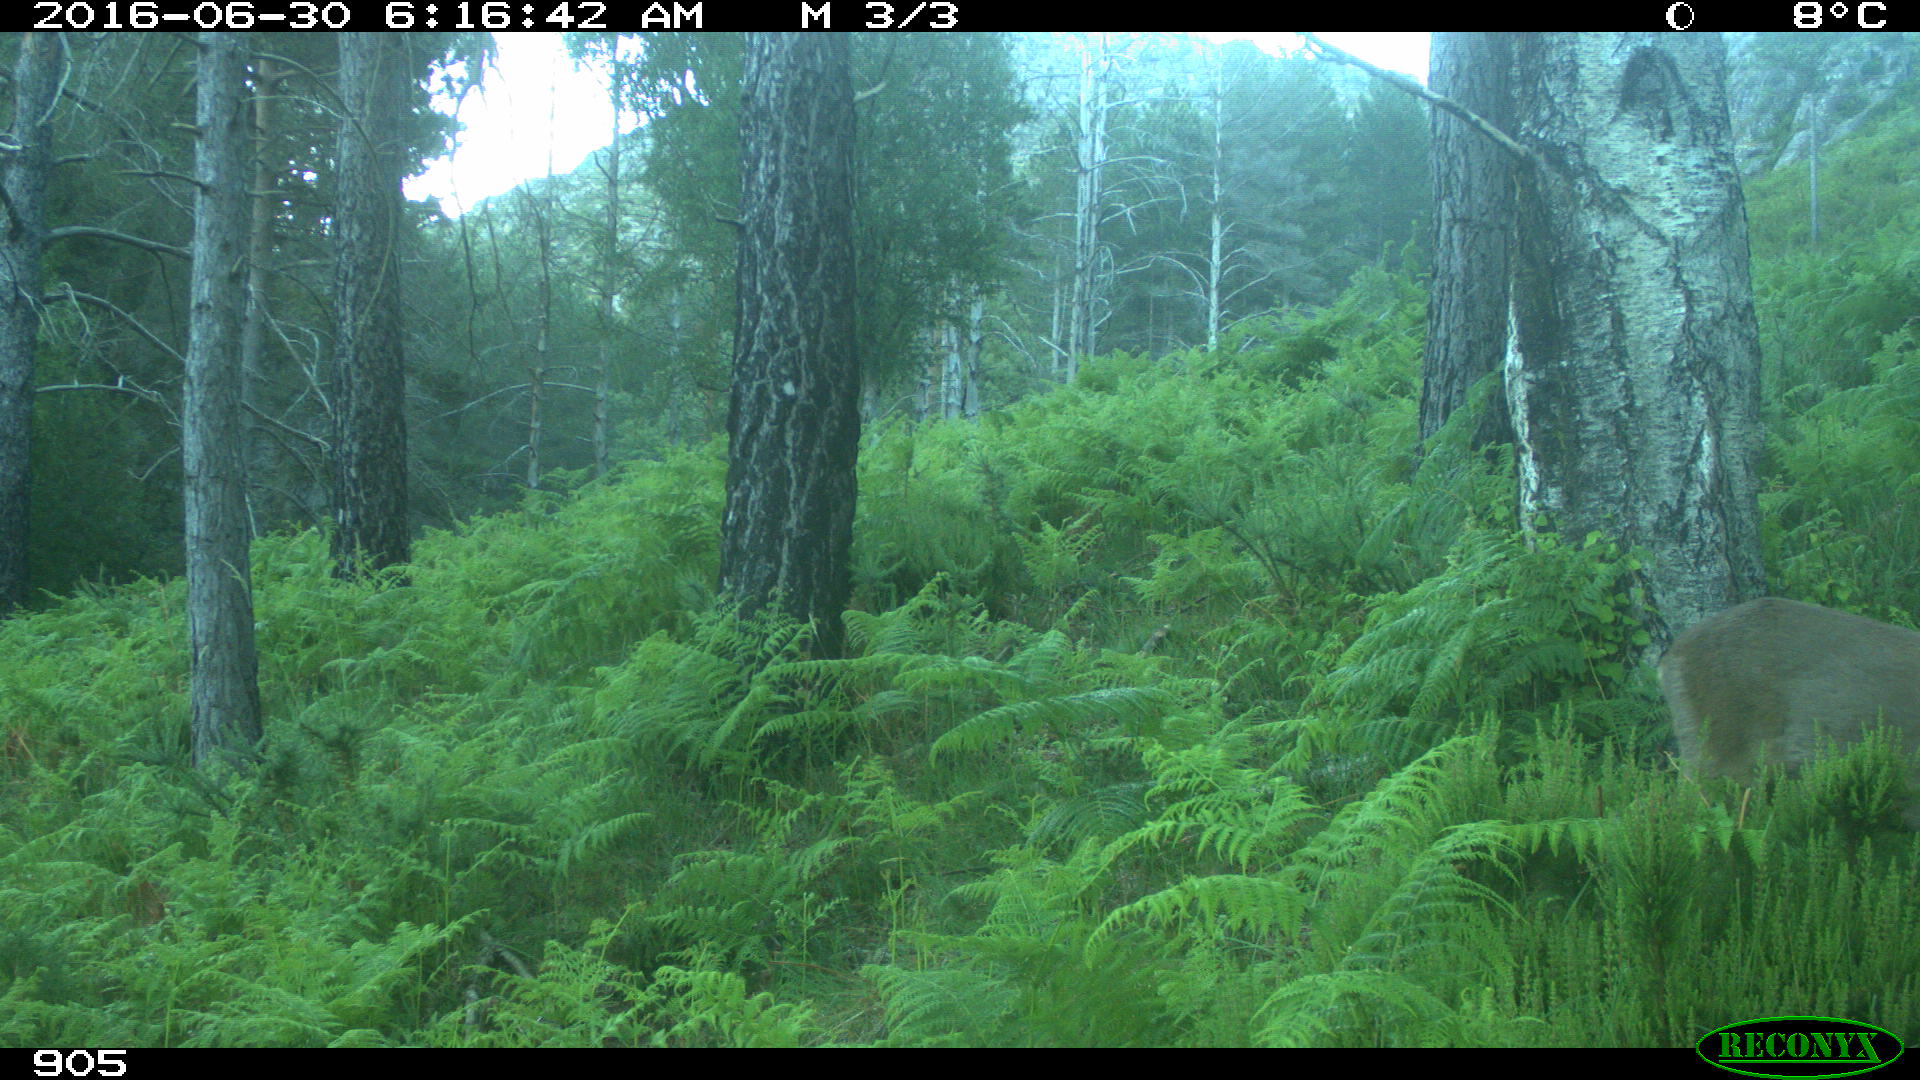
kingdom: Animalia
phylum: Chordata
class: Mammalia
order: Artiodactyla
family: Cervidae
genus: Capreolus
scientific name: Capreolus capreolus
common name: Western roe deer
